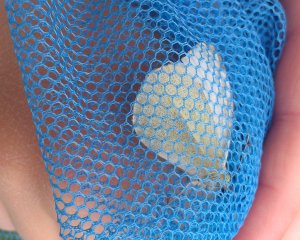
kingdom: Animalia
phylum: Arthropoda
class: Insecta
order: Lepidoptera
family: Pieridae
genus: Pieris
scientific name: Pieris rapae
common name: Cabbage White
